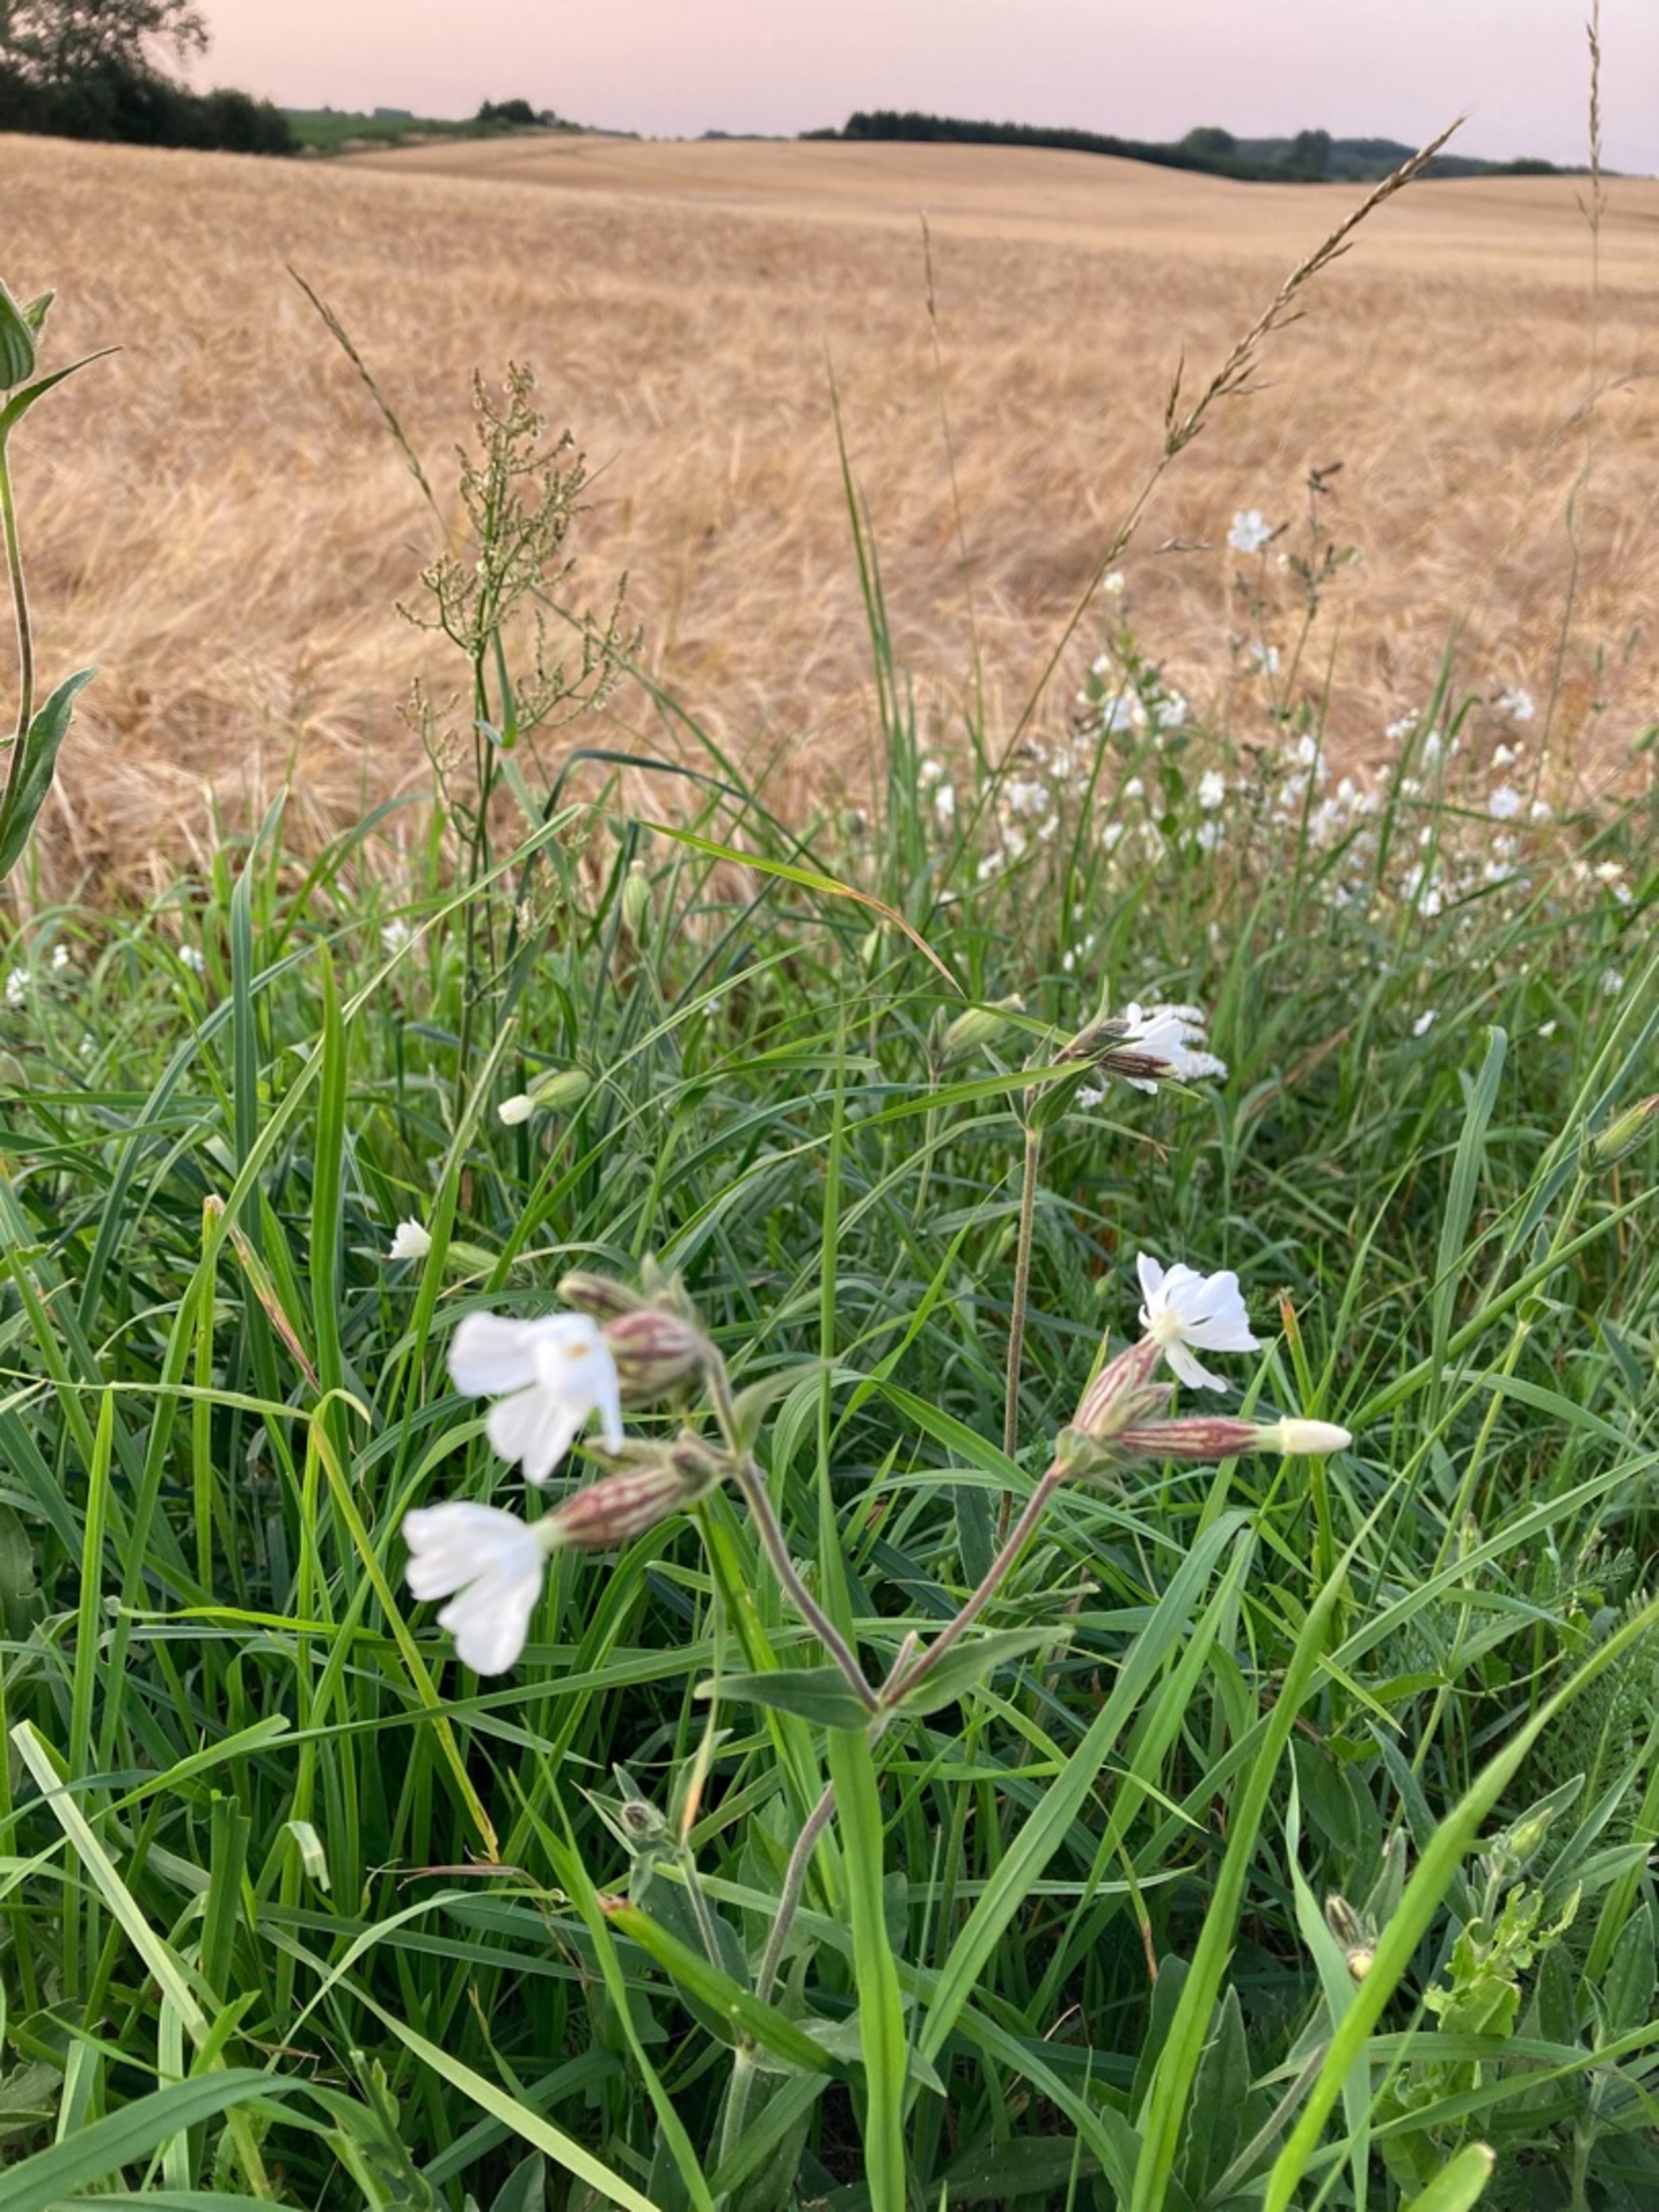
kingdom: Plantae
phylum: Tracheophyta
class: Magnoliopsida
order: Caryophyllales
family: Caryophyllaceae
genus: Silene
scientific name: Silene latifolia
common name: Aftenpragtstjerne
